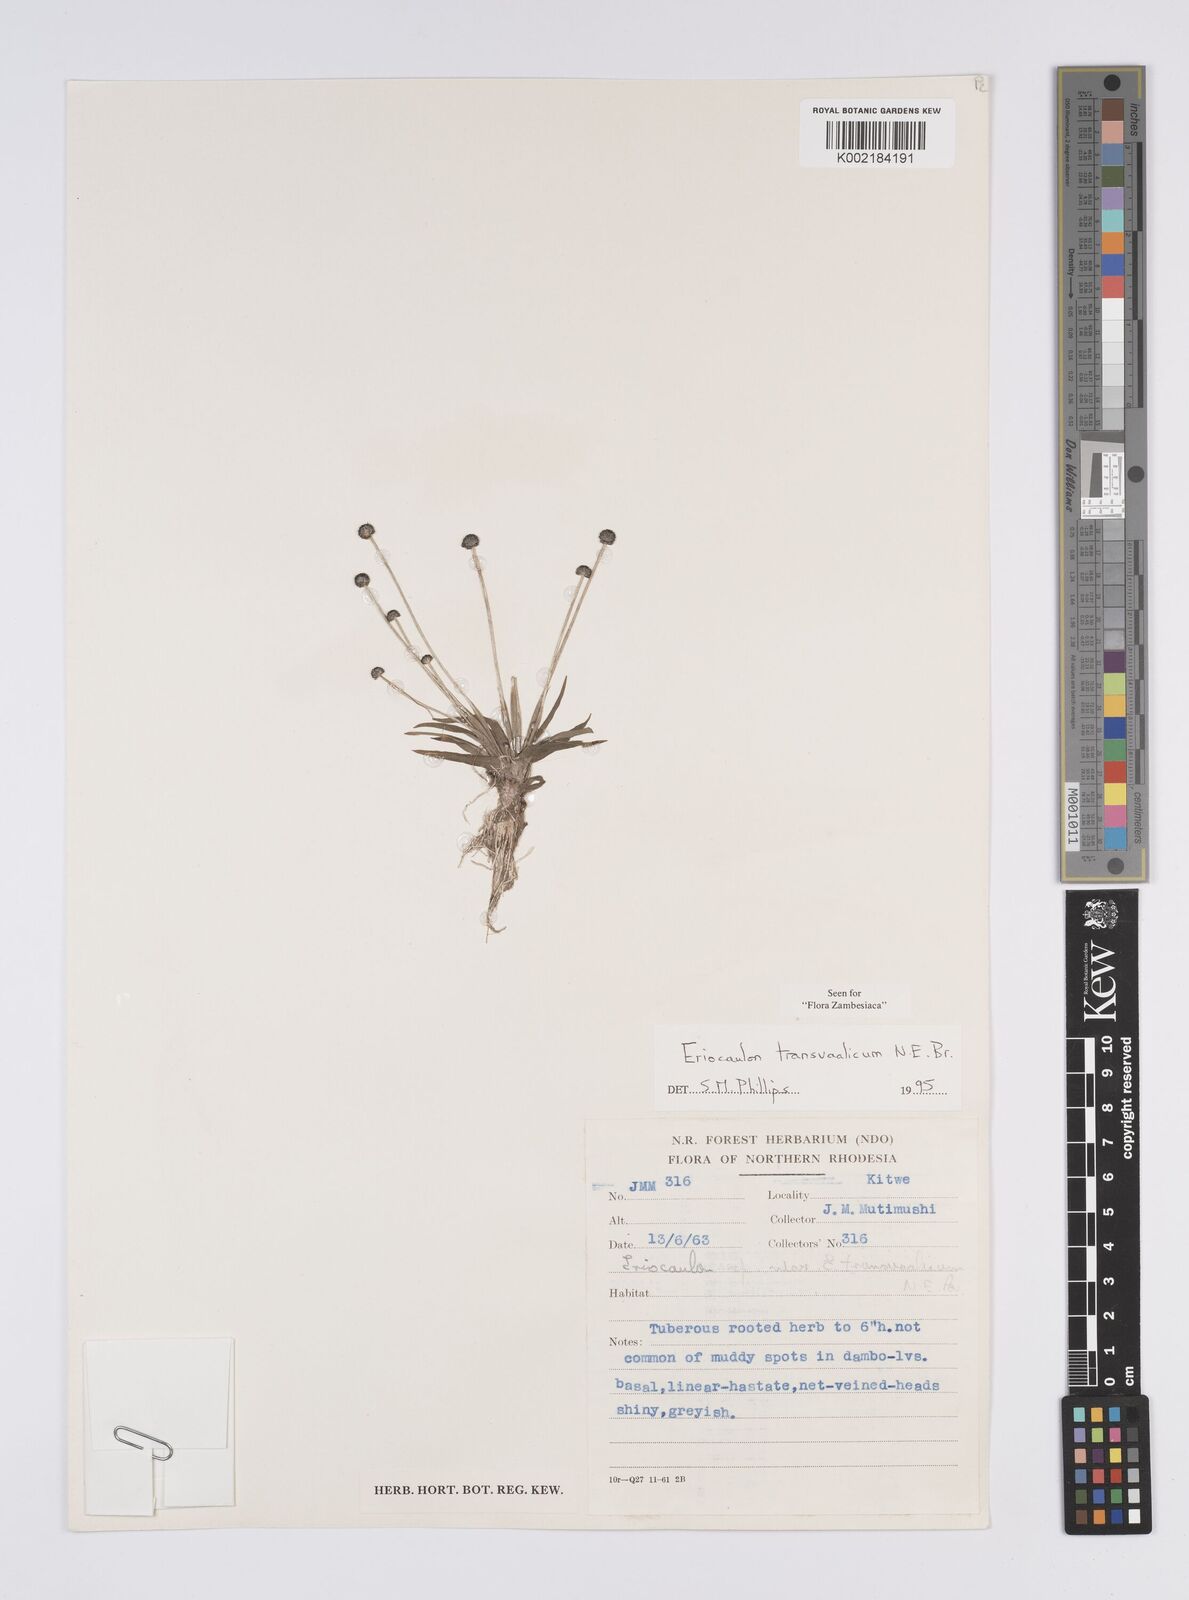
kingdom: Plantae
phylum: Tracheophyta
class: Liliopsida
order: Poales
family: Eriocaulaceae
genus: Eriocaulon
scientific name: Eriocaulon transvaalicum
